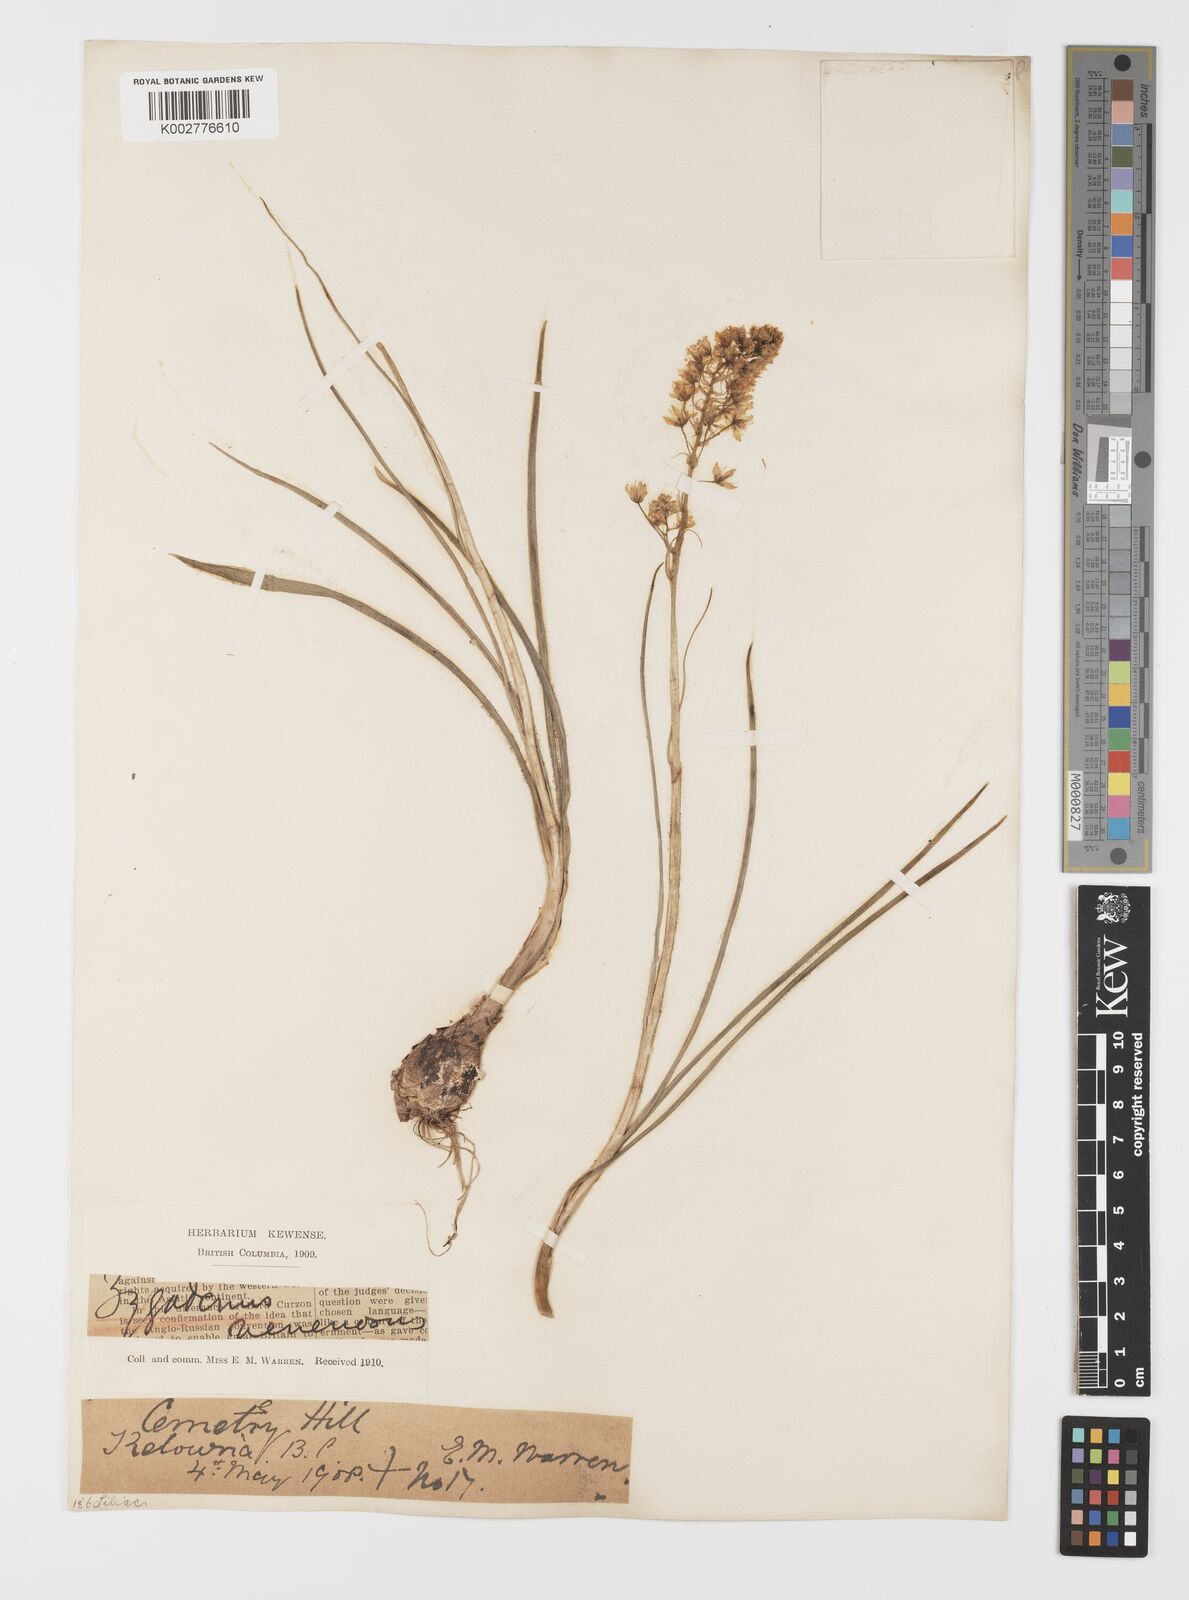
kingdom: Plantae
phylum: Tracheophyta
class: Liliopsida
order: Liliales
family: Melanthiaceae
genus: Toxicoscordion
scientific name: Toxicoscordion venenosum
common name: Meadow death camas
